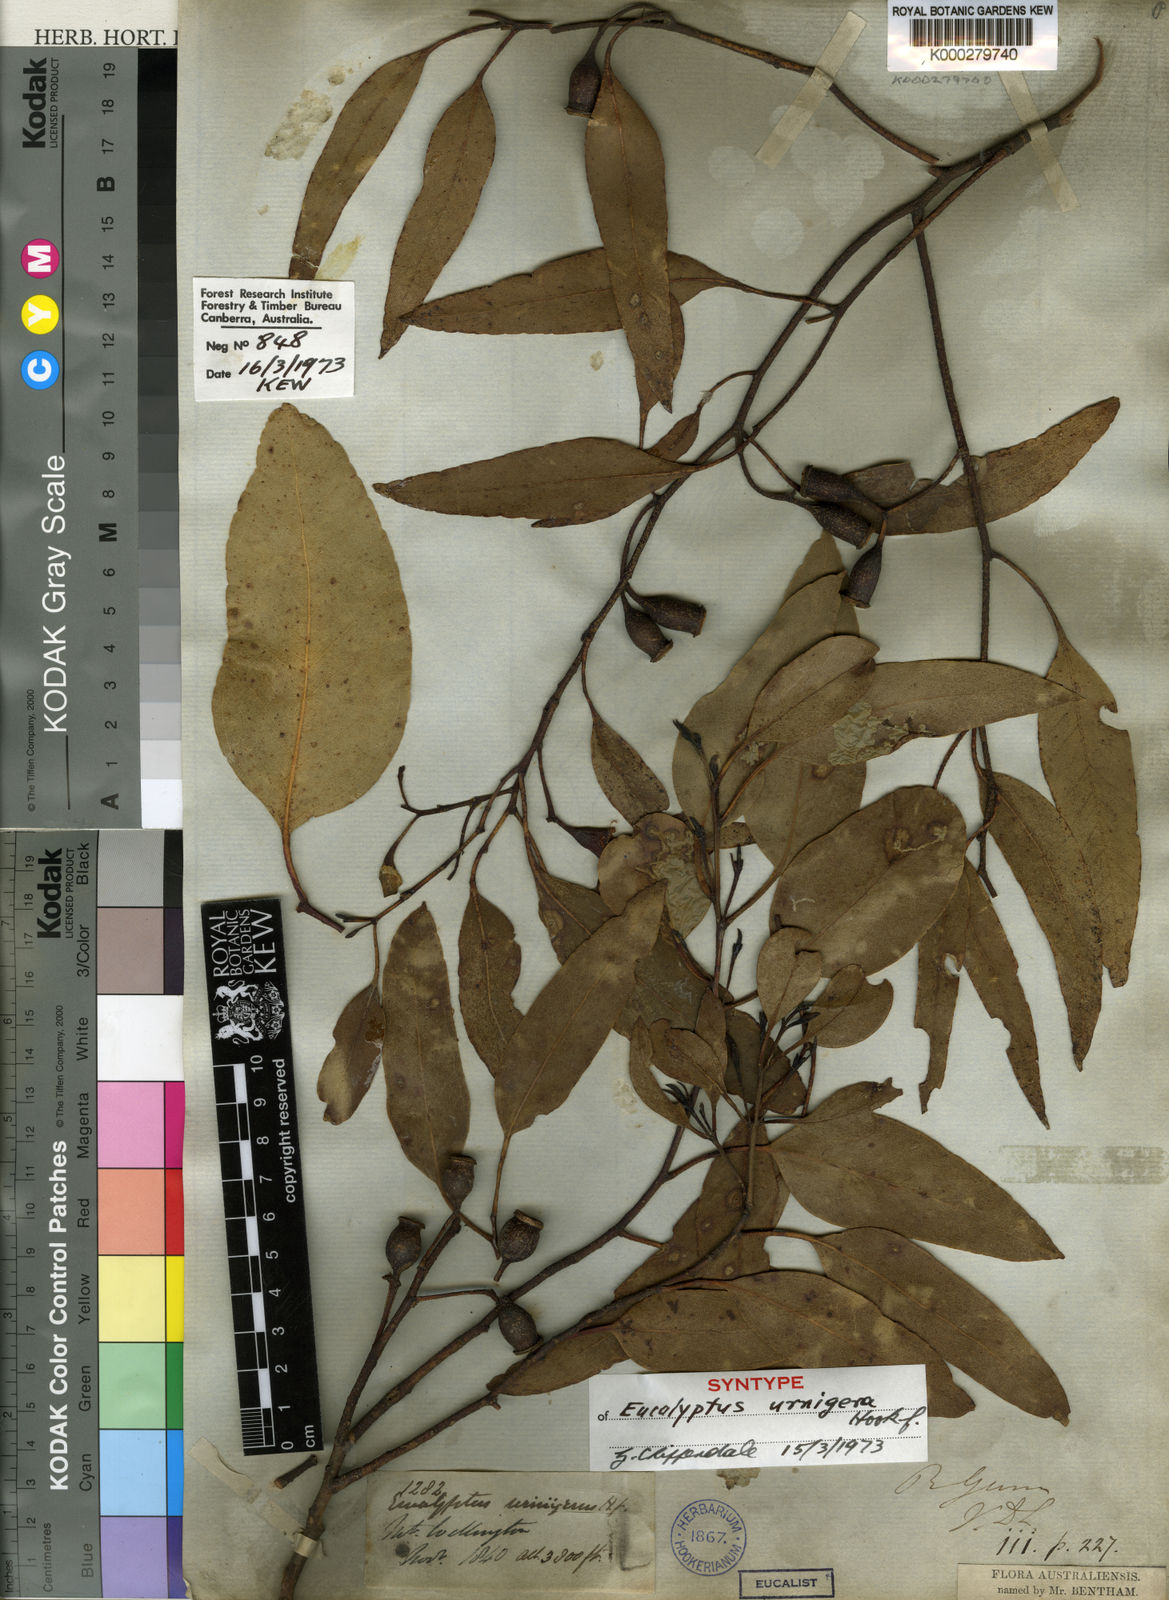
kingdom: Plantae
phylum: Tracheophyta
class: Magnoliopsida
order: Myrtales
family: Myrtaceae
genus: Eucalyptus
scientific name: Eucalyptus urnigera
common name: Urn-fruited gum
